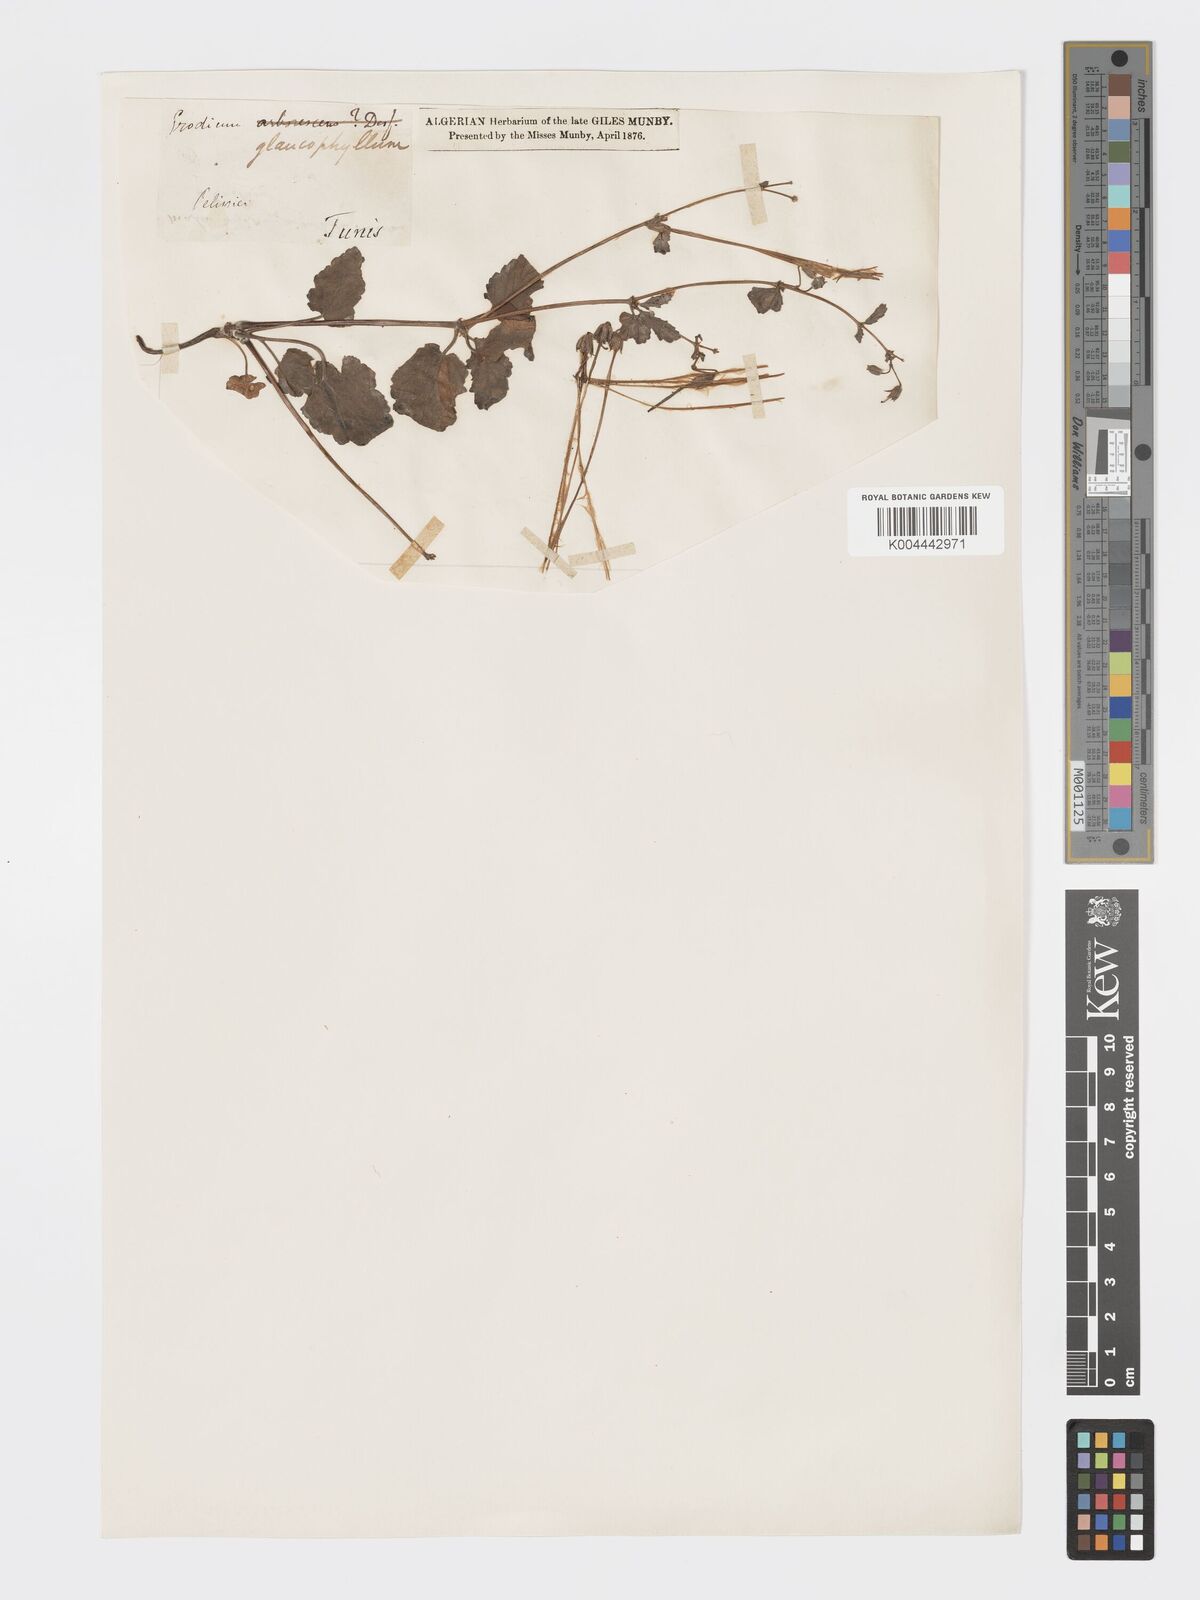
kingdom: Plantae
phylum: Tracheophyta
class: Magnoliopsida
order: Geraniales
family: Geraniaceae
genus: Erodium
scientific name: Erodium glaucophyllum
